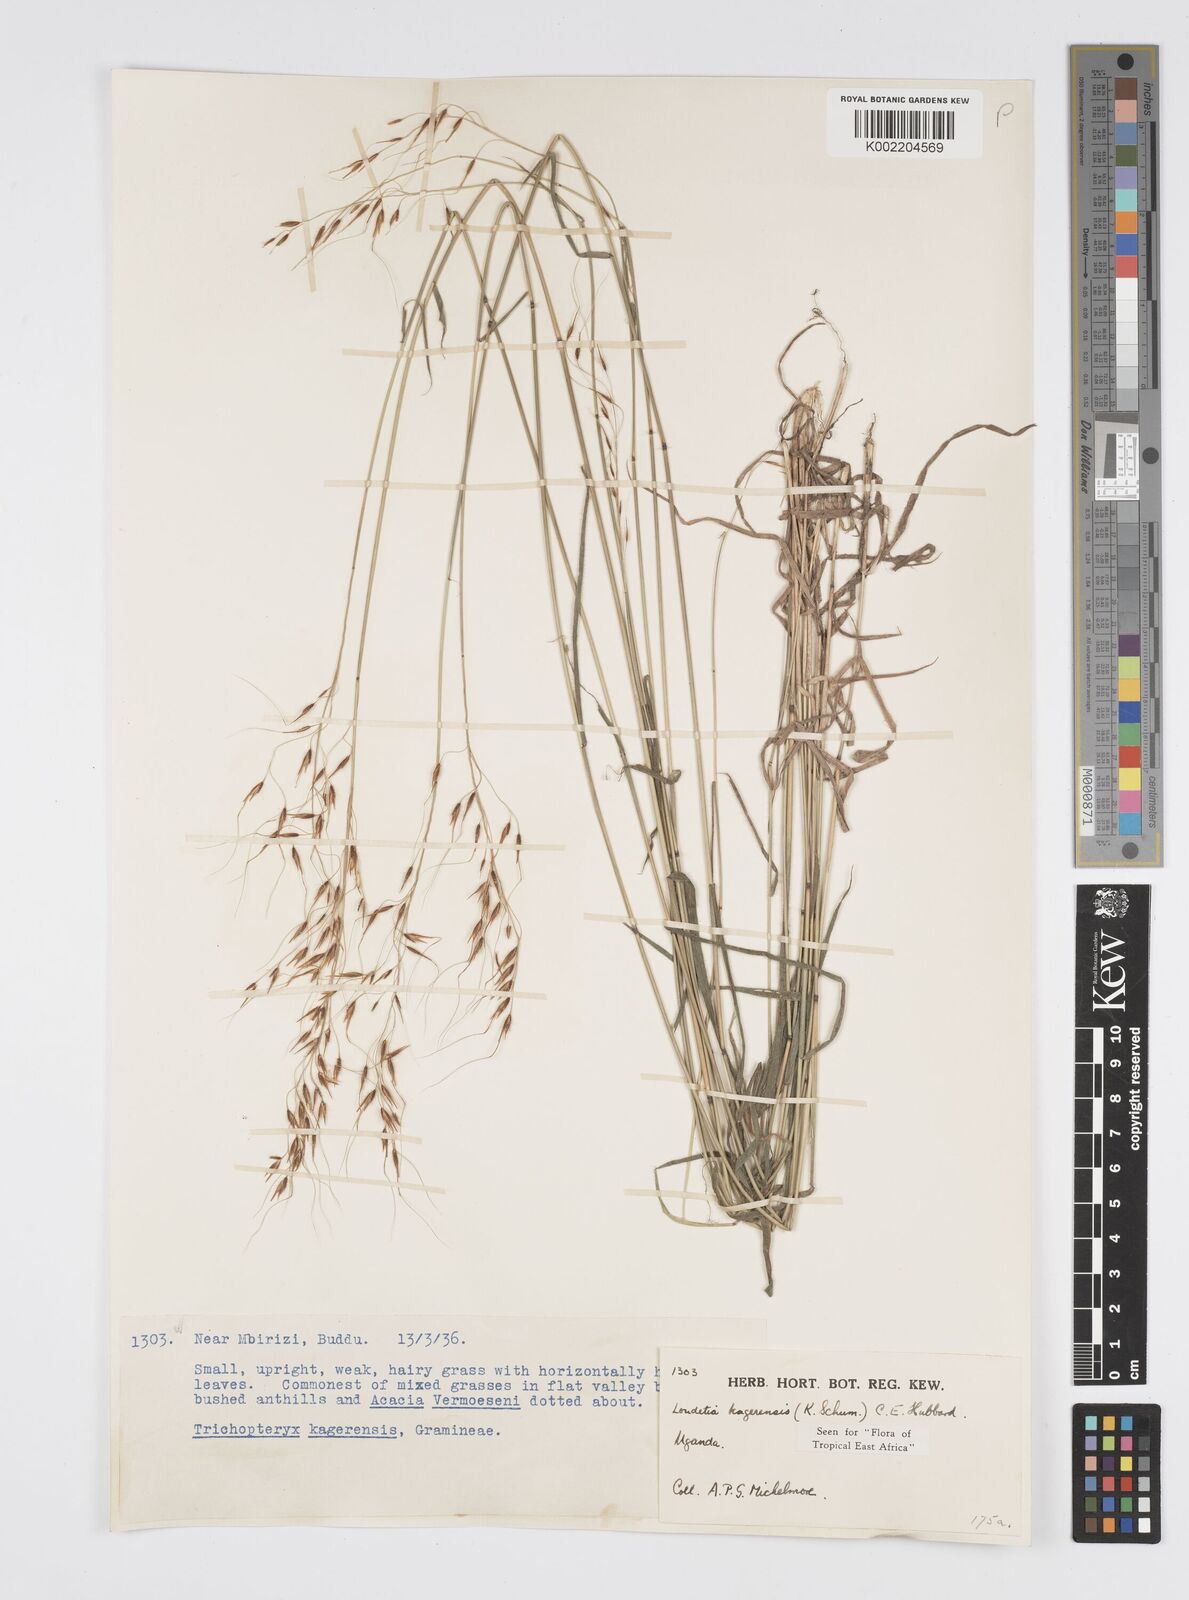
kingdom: Plantae
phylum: Tracheophyta
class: Liliopsida
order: Poales
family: Poaceae
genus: Loudetia
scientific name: Loudetia kagerensis
